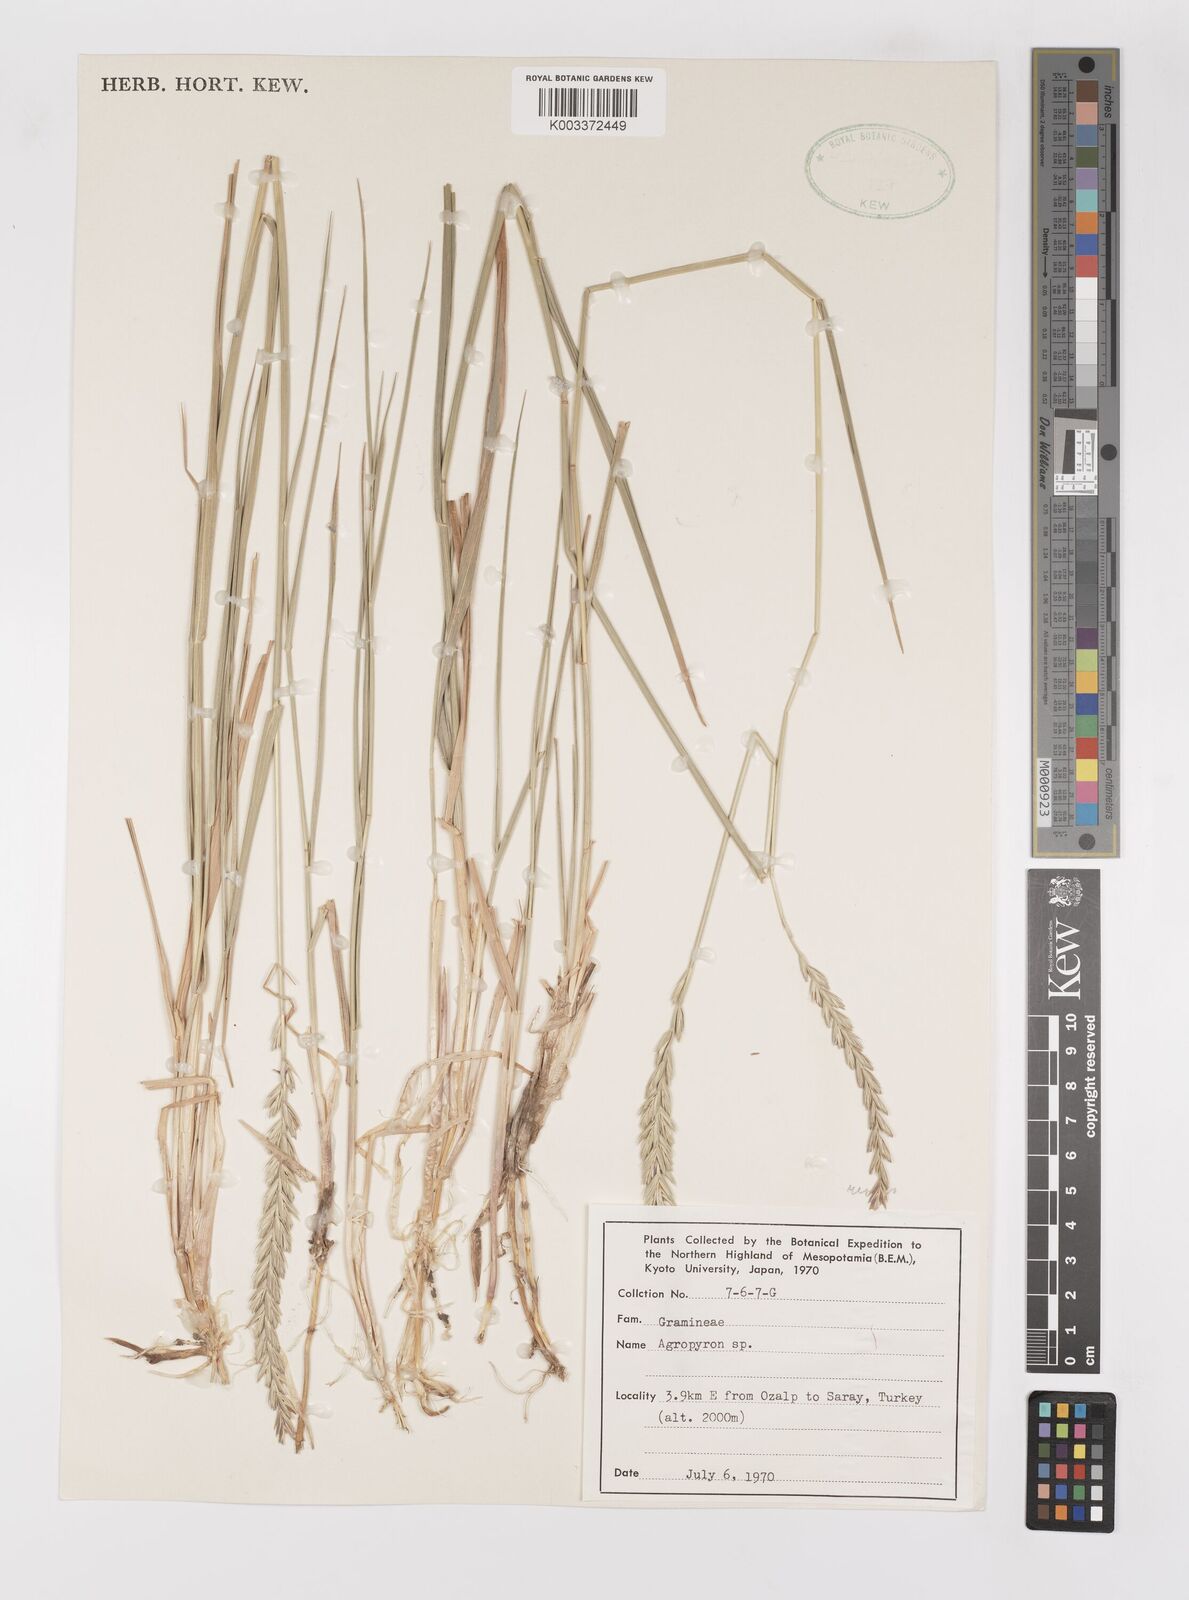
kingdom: Plantae
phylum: Tracheophyta
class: Liliopsida
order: Poales
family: Poaceae
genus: Elymus
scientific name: Elymus repens
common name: Quackgrass
